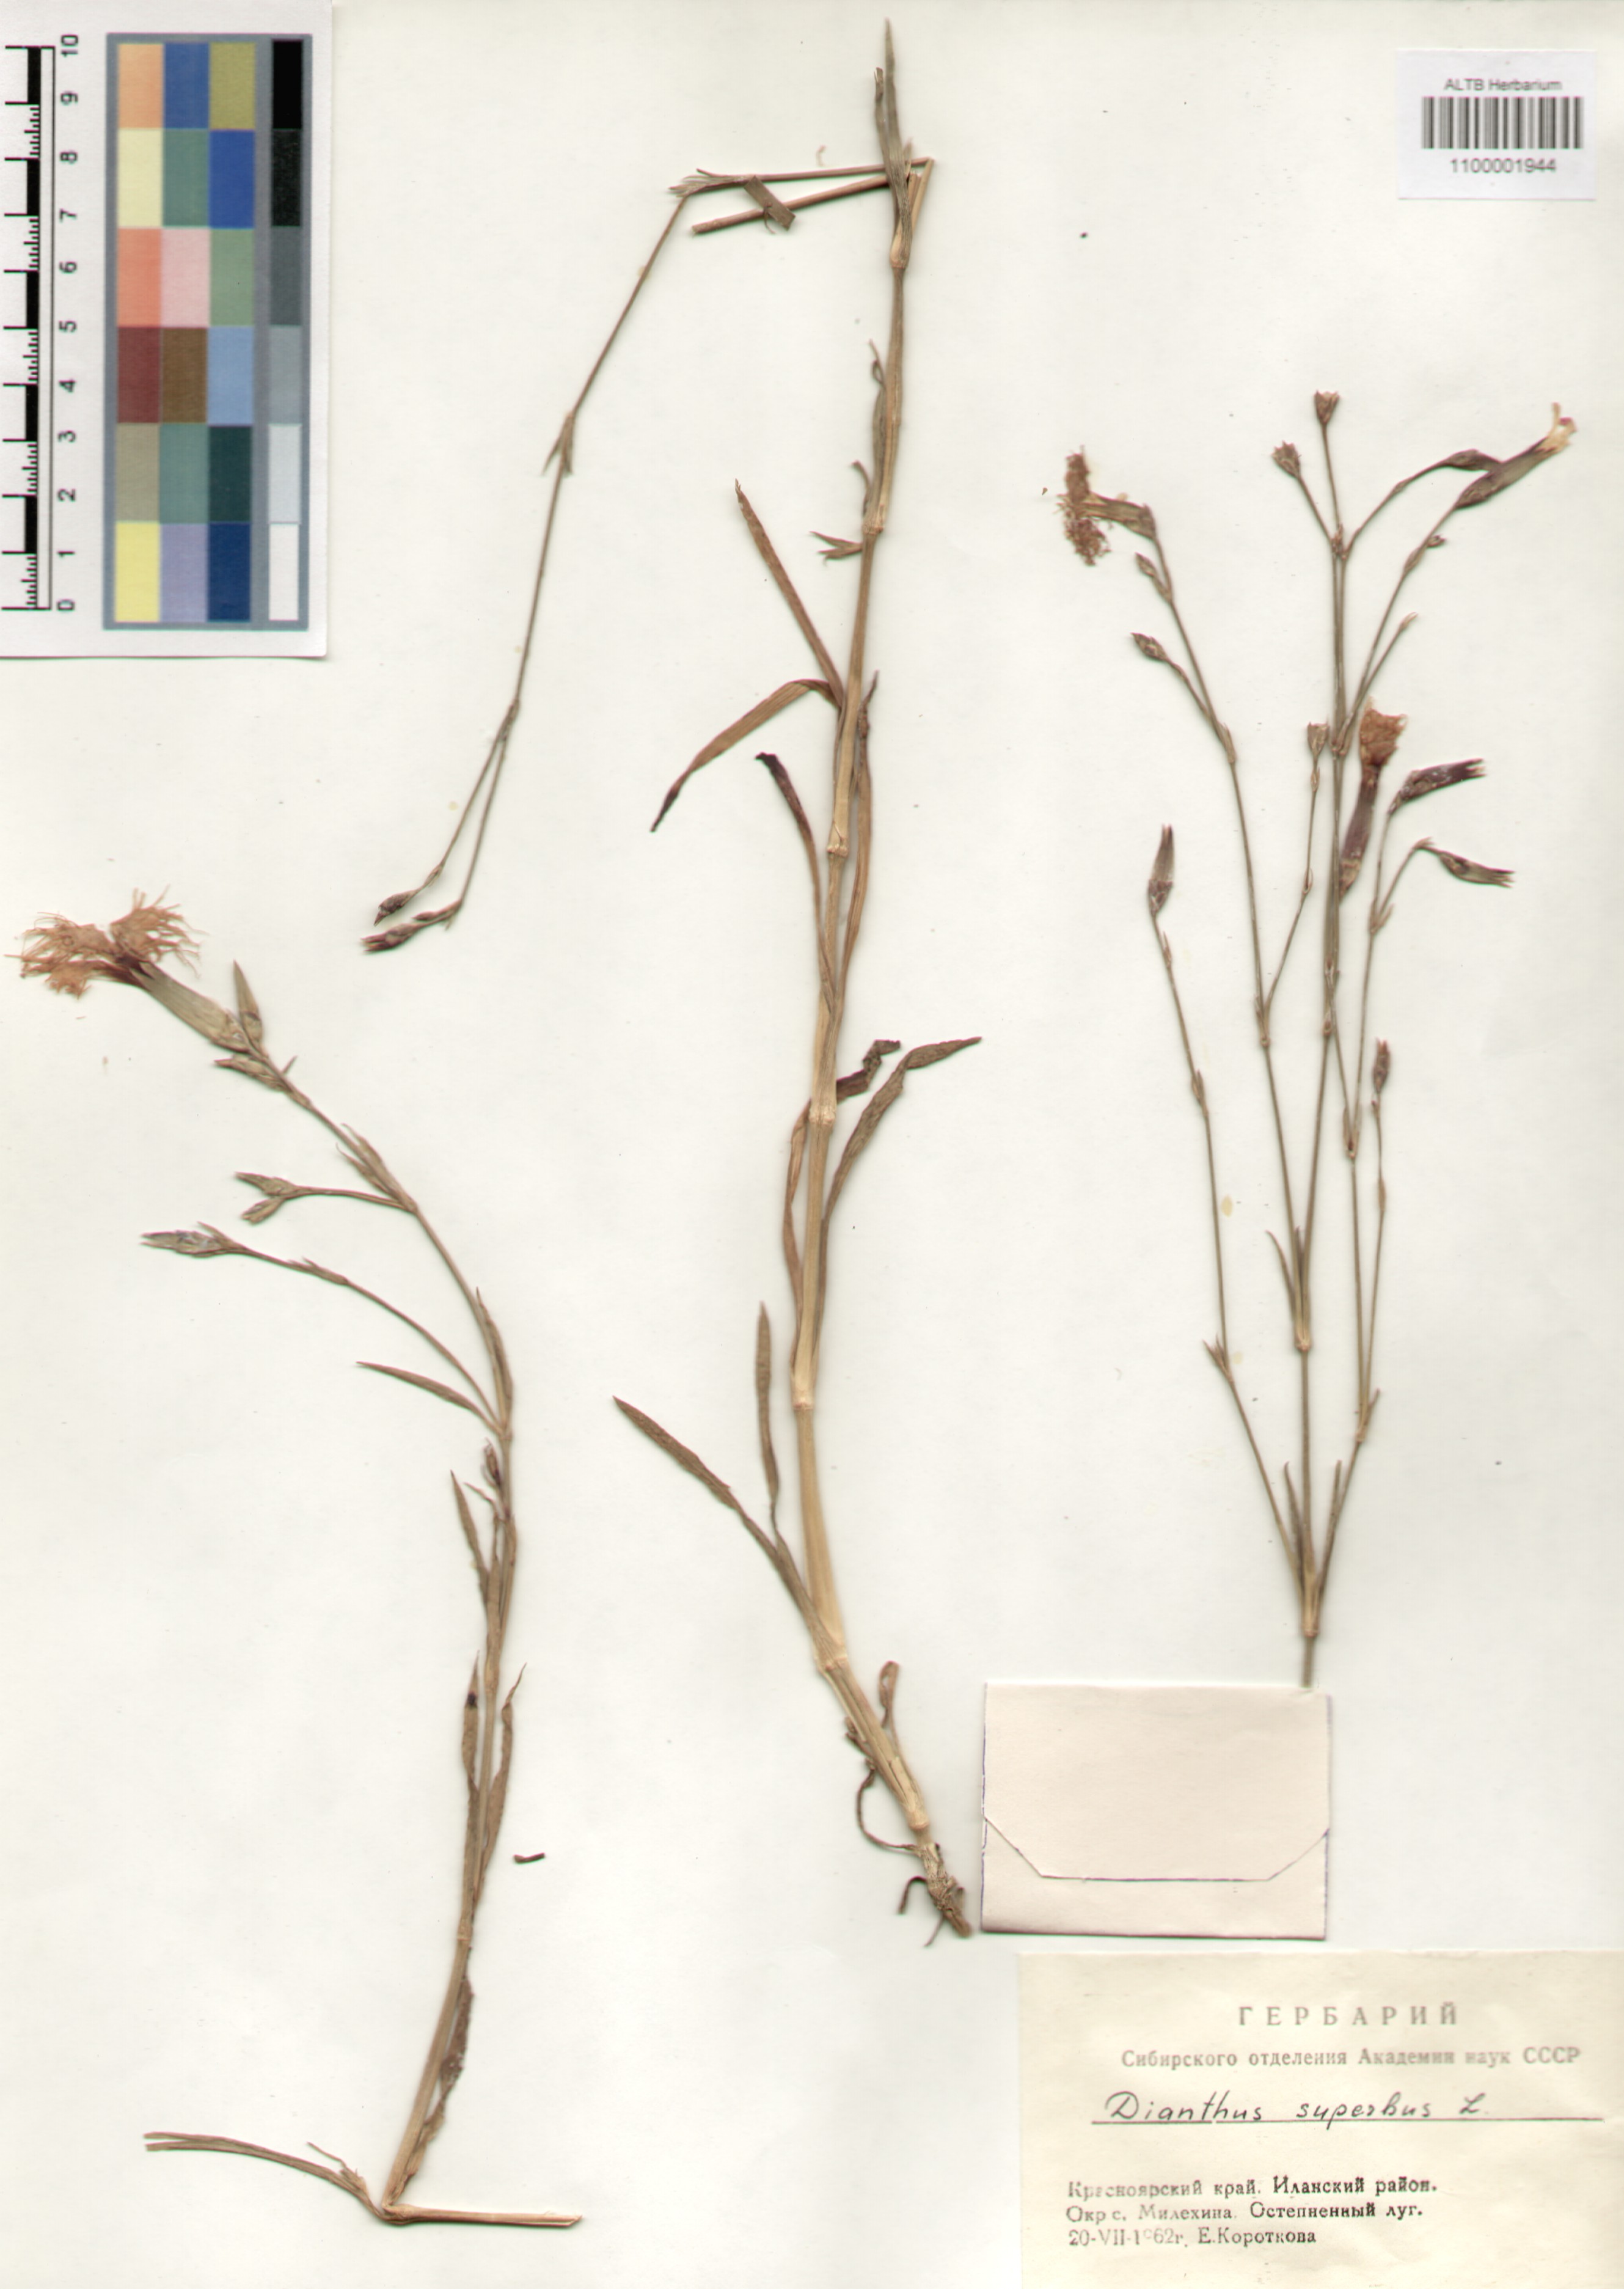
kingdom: Plantae
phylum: Tracheophyta
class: Magnoliopsida
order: Caryophyllales
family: Caryophyllaceae
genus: Dianthus
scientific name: Dianthus superbus
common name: Fringed pink
